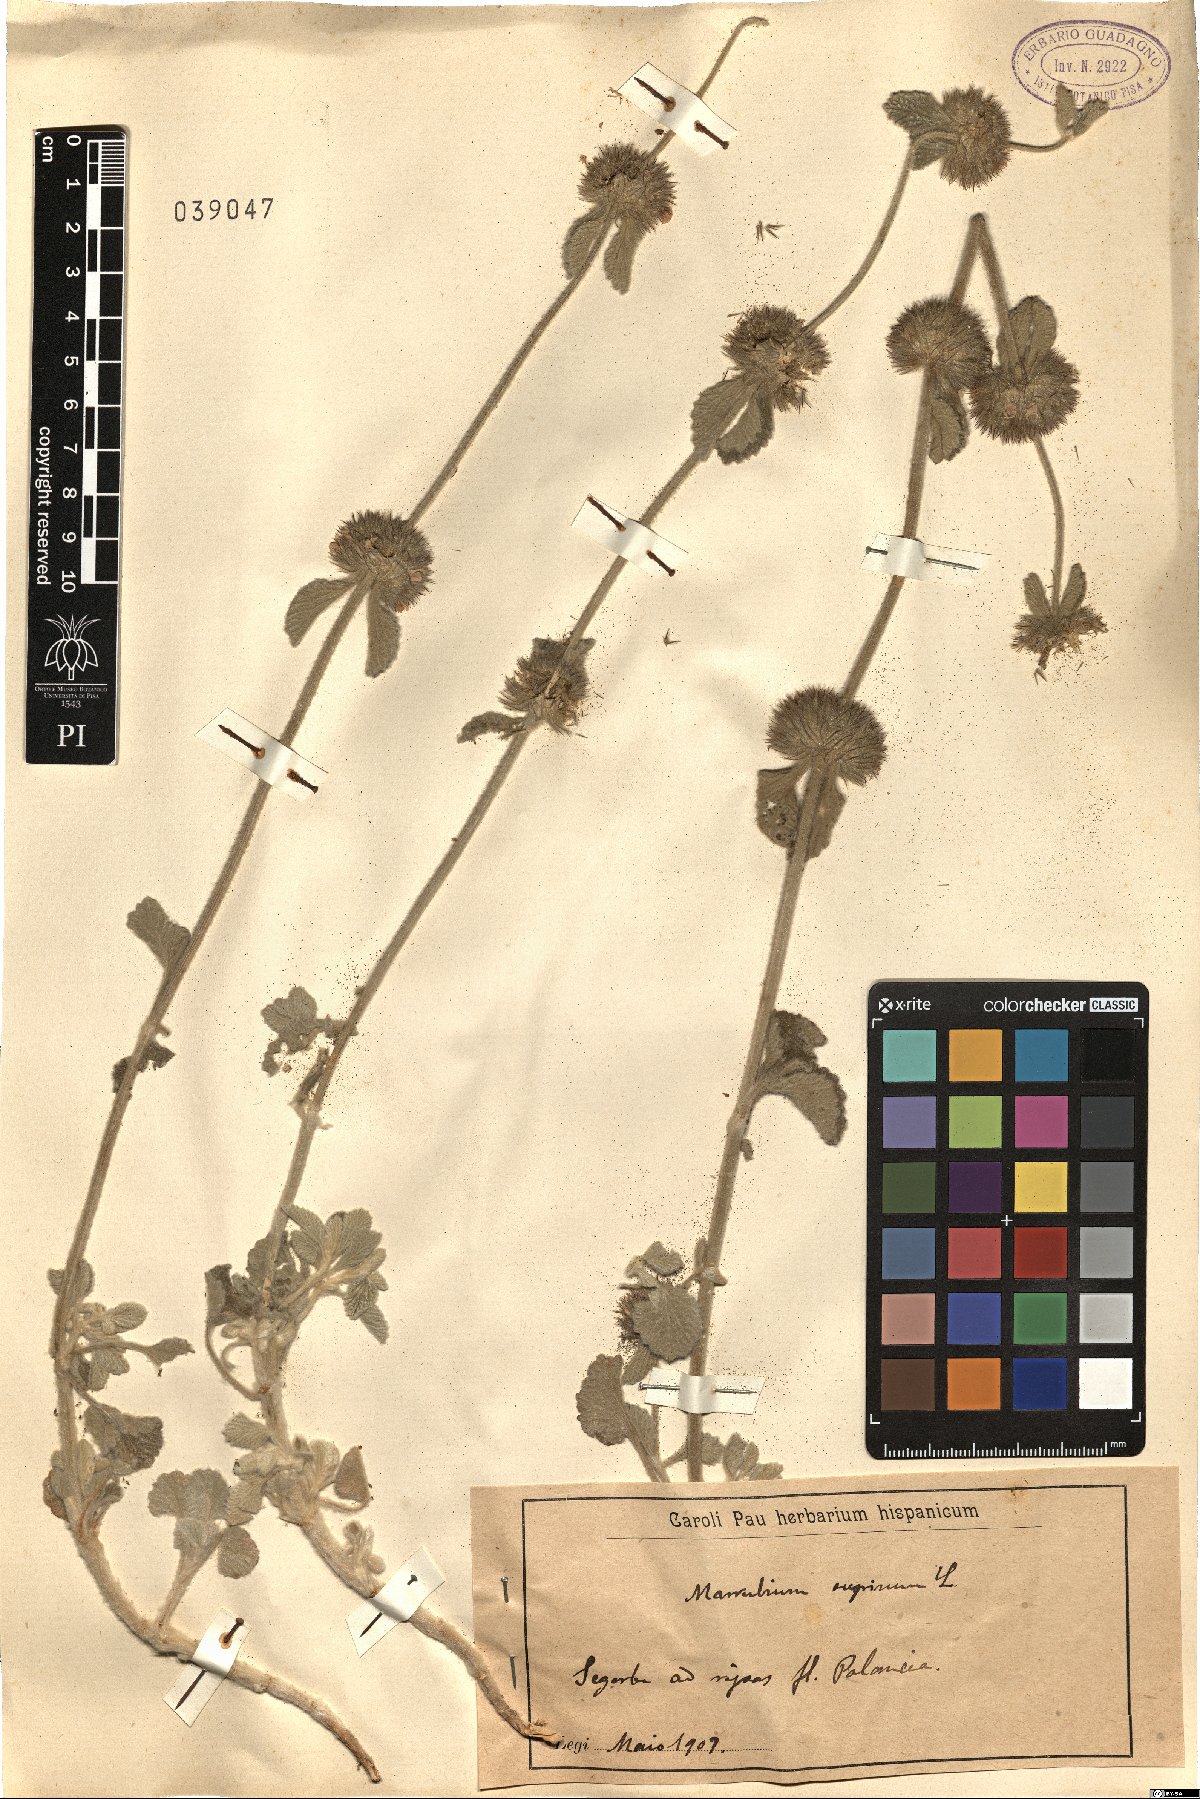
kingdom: Plantae
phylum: Tracheophyta
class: Magnoliopsida
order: Lamiales
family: Lamiaceae
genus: Marrubium
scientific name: Marrubium supinum
